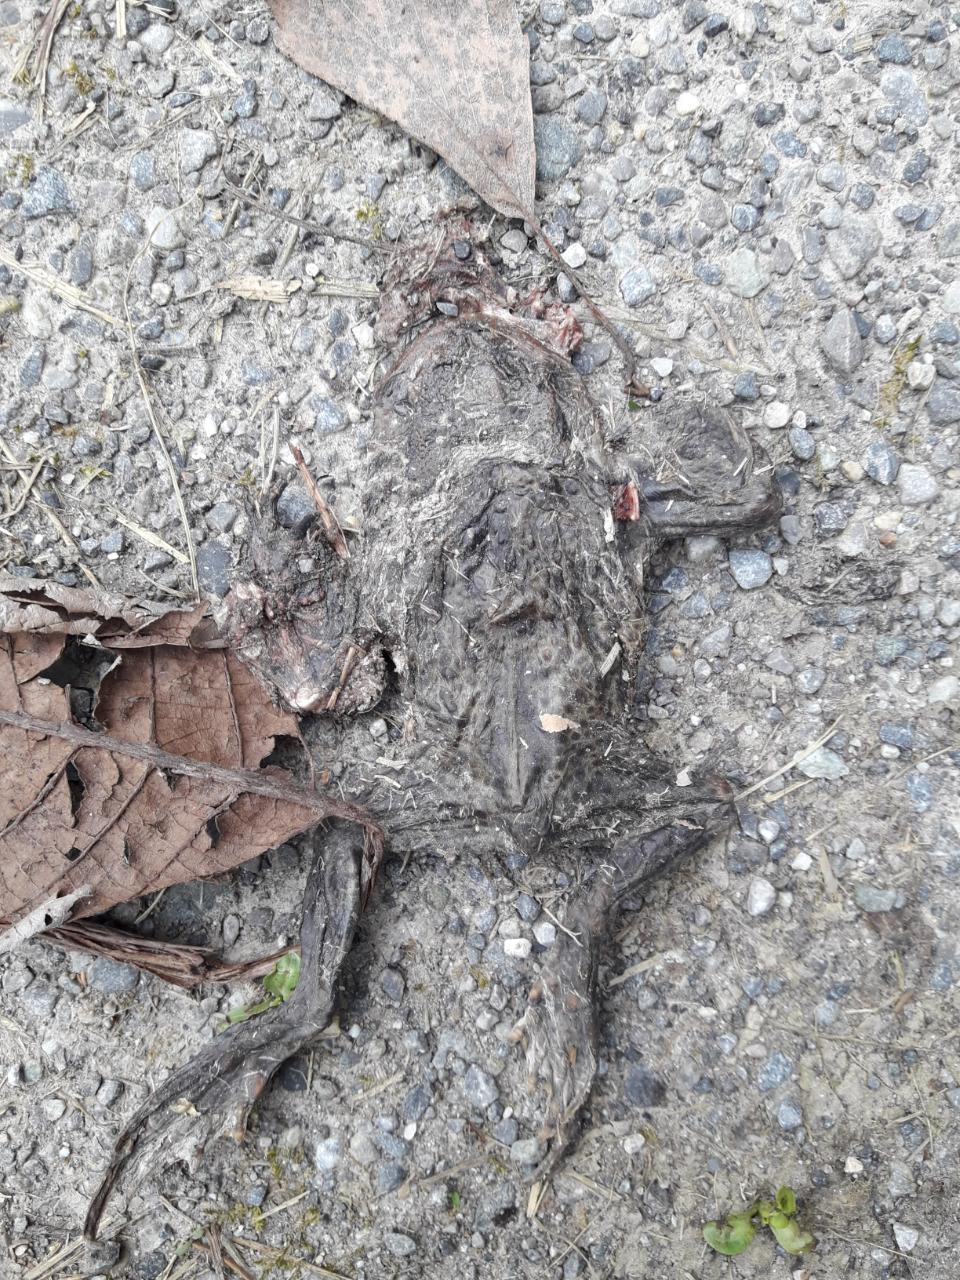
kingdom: Animalia
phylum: Chordata
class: Amphibia
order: Anura
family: Bufonidae
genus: Bufo
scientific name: Bufo bufo
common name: Common toad
